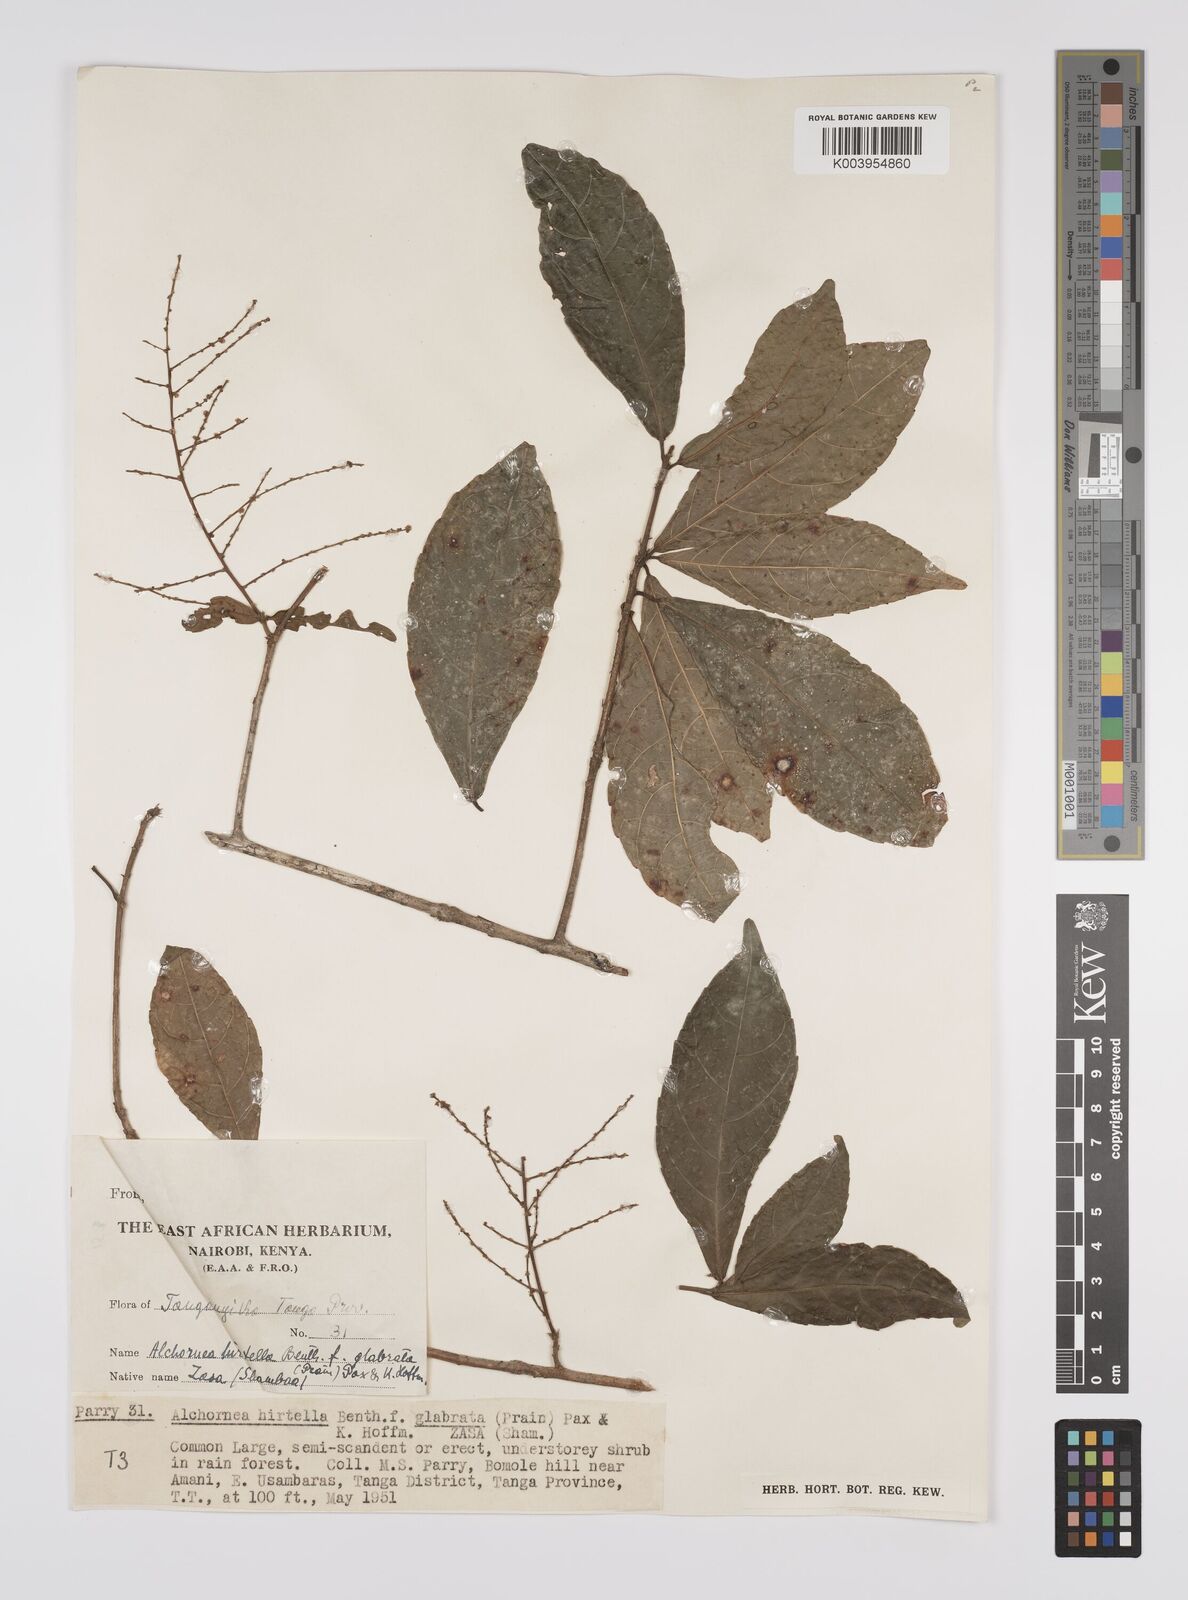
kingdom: Plantae
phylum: Tracheophyta
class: Magnoliopsida
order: Malpighiales
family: Euphorbiaceae
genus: Alchornea
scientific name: Alchornea hirtella
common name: Forest bead-string
